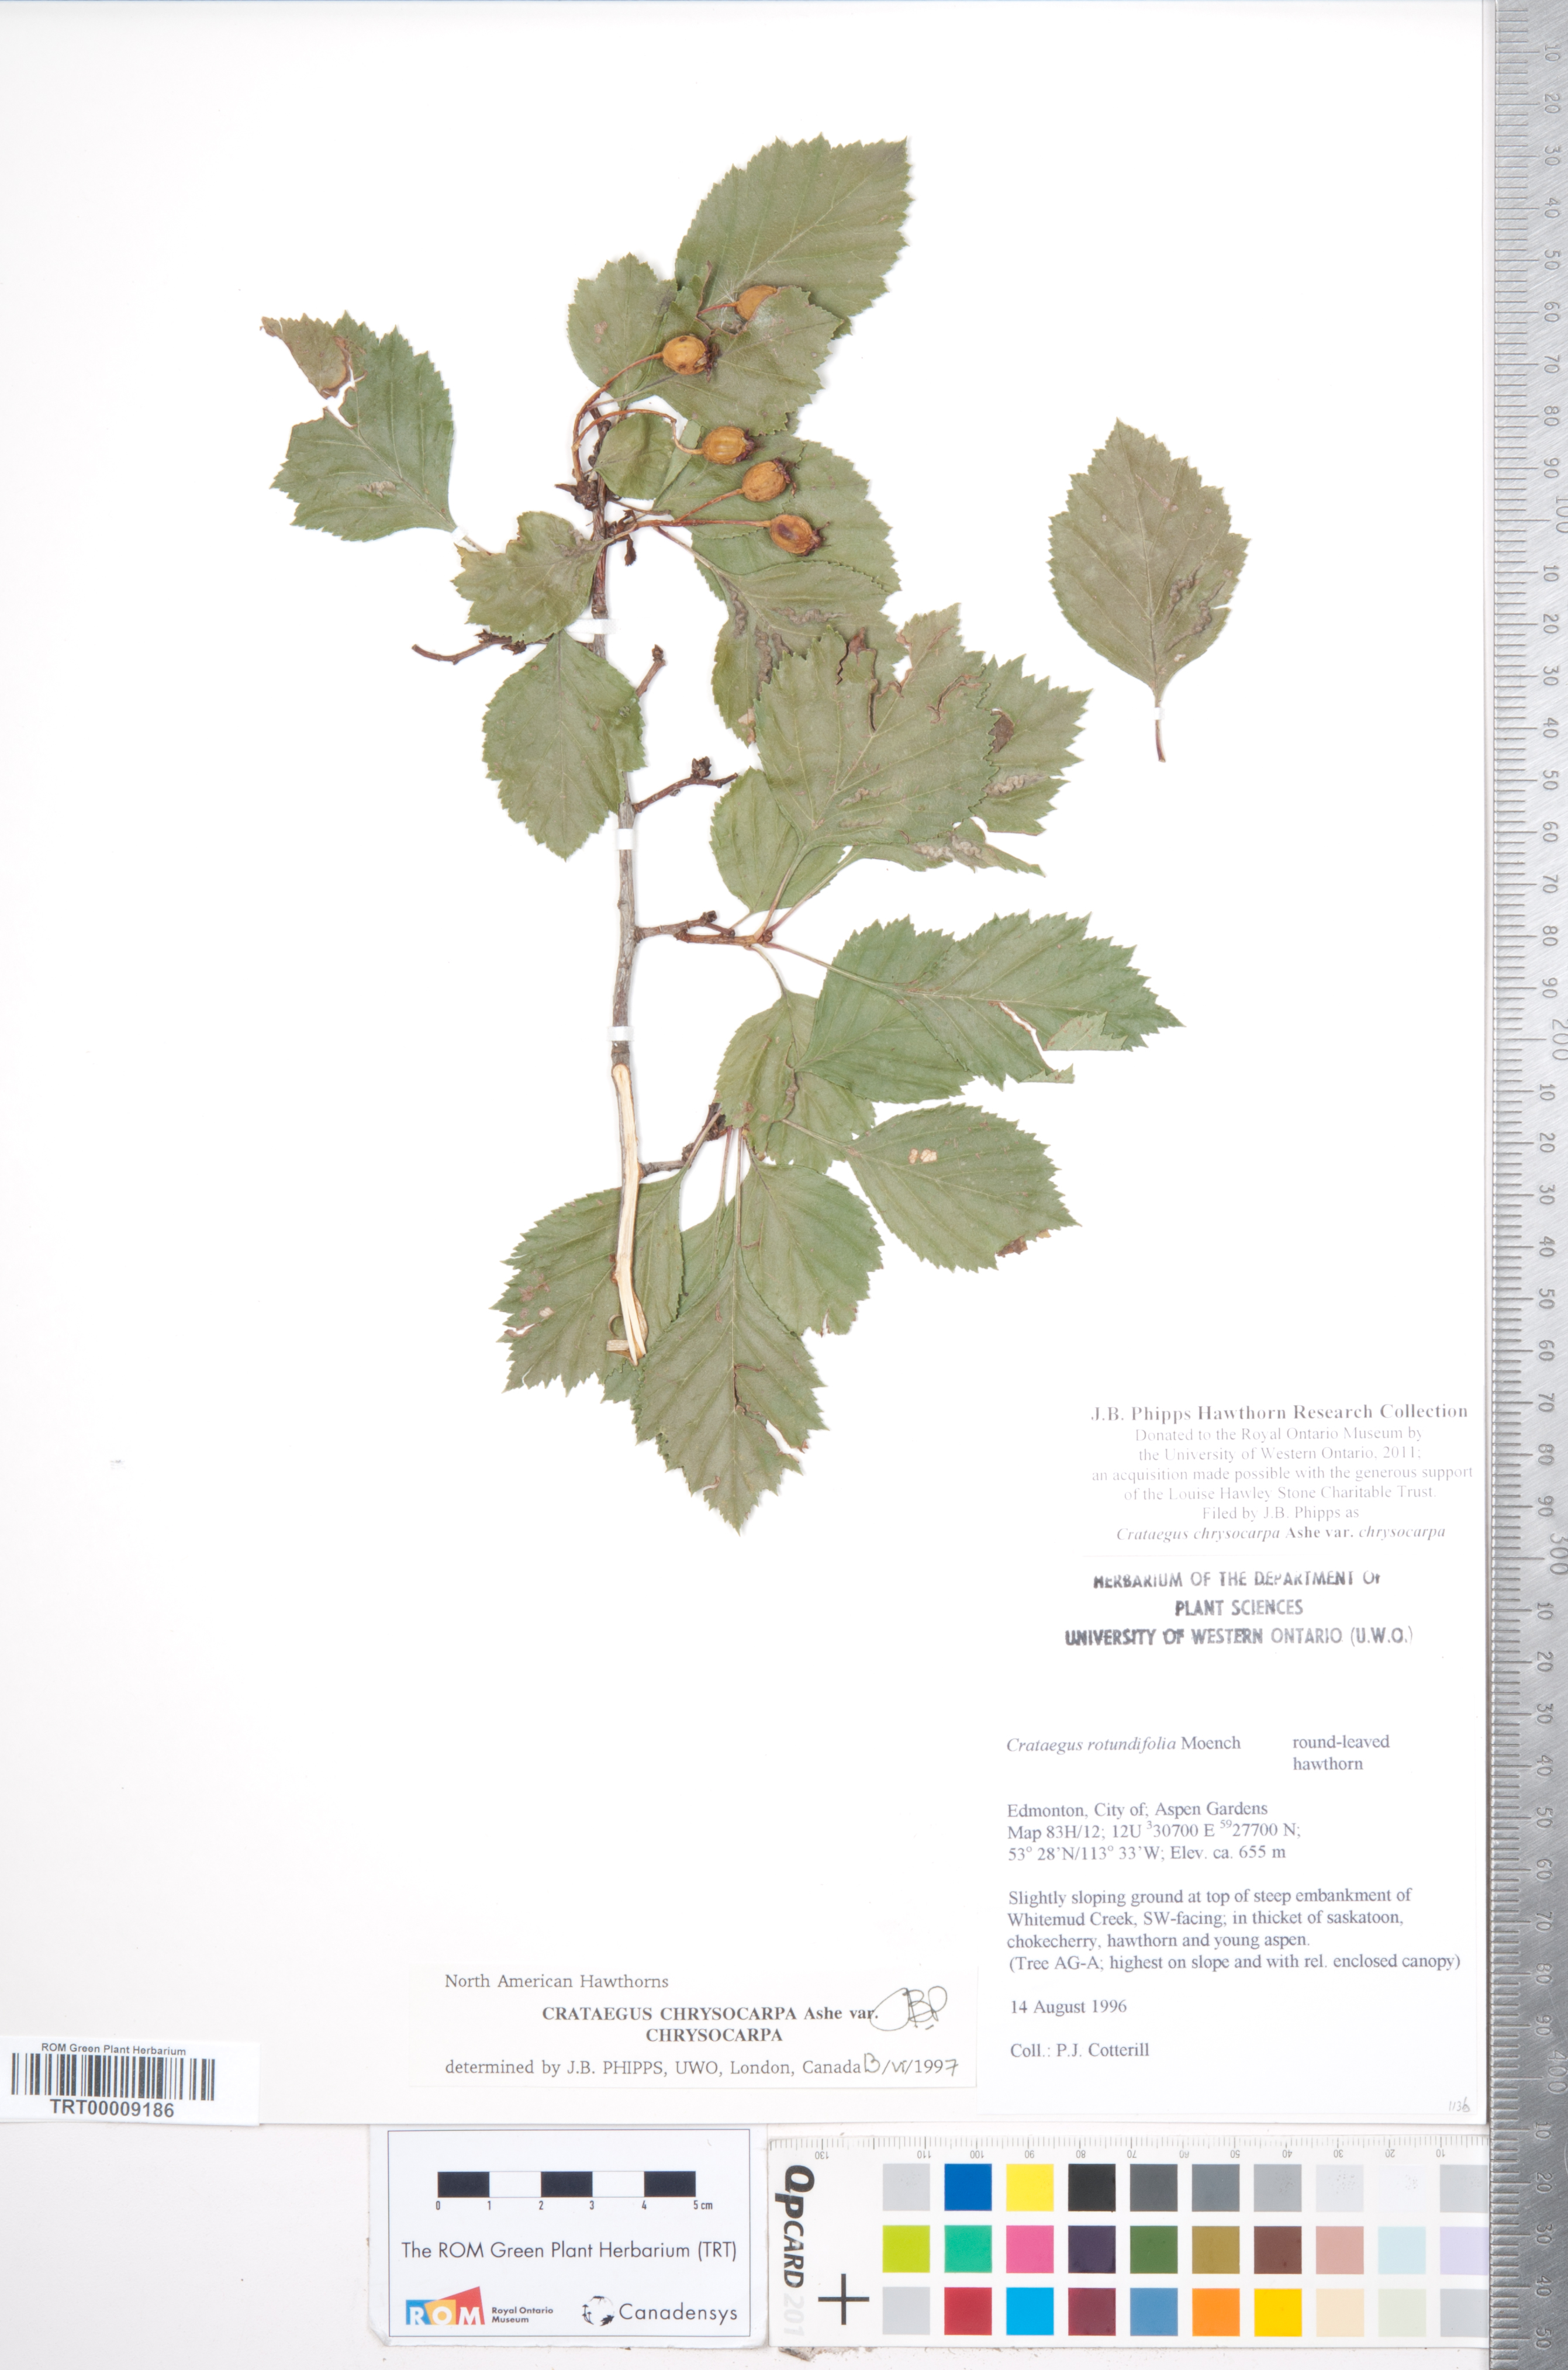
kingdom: Plantae
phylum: Tracheophyta
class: Magnoliopsida
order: Rosales
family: Rosaceae
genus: Crataegus
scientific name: Crataegus chrysocarpa
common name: Fire-berry hawthorn
